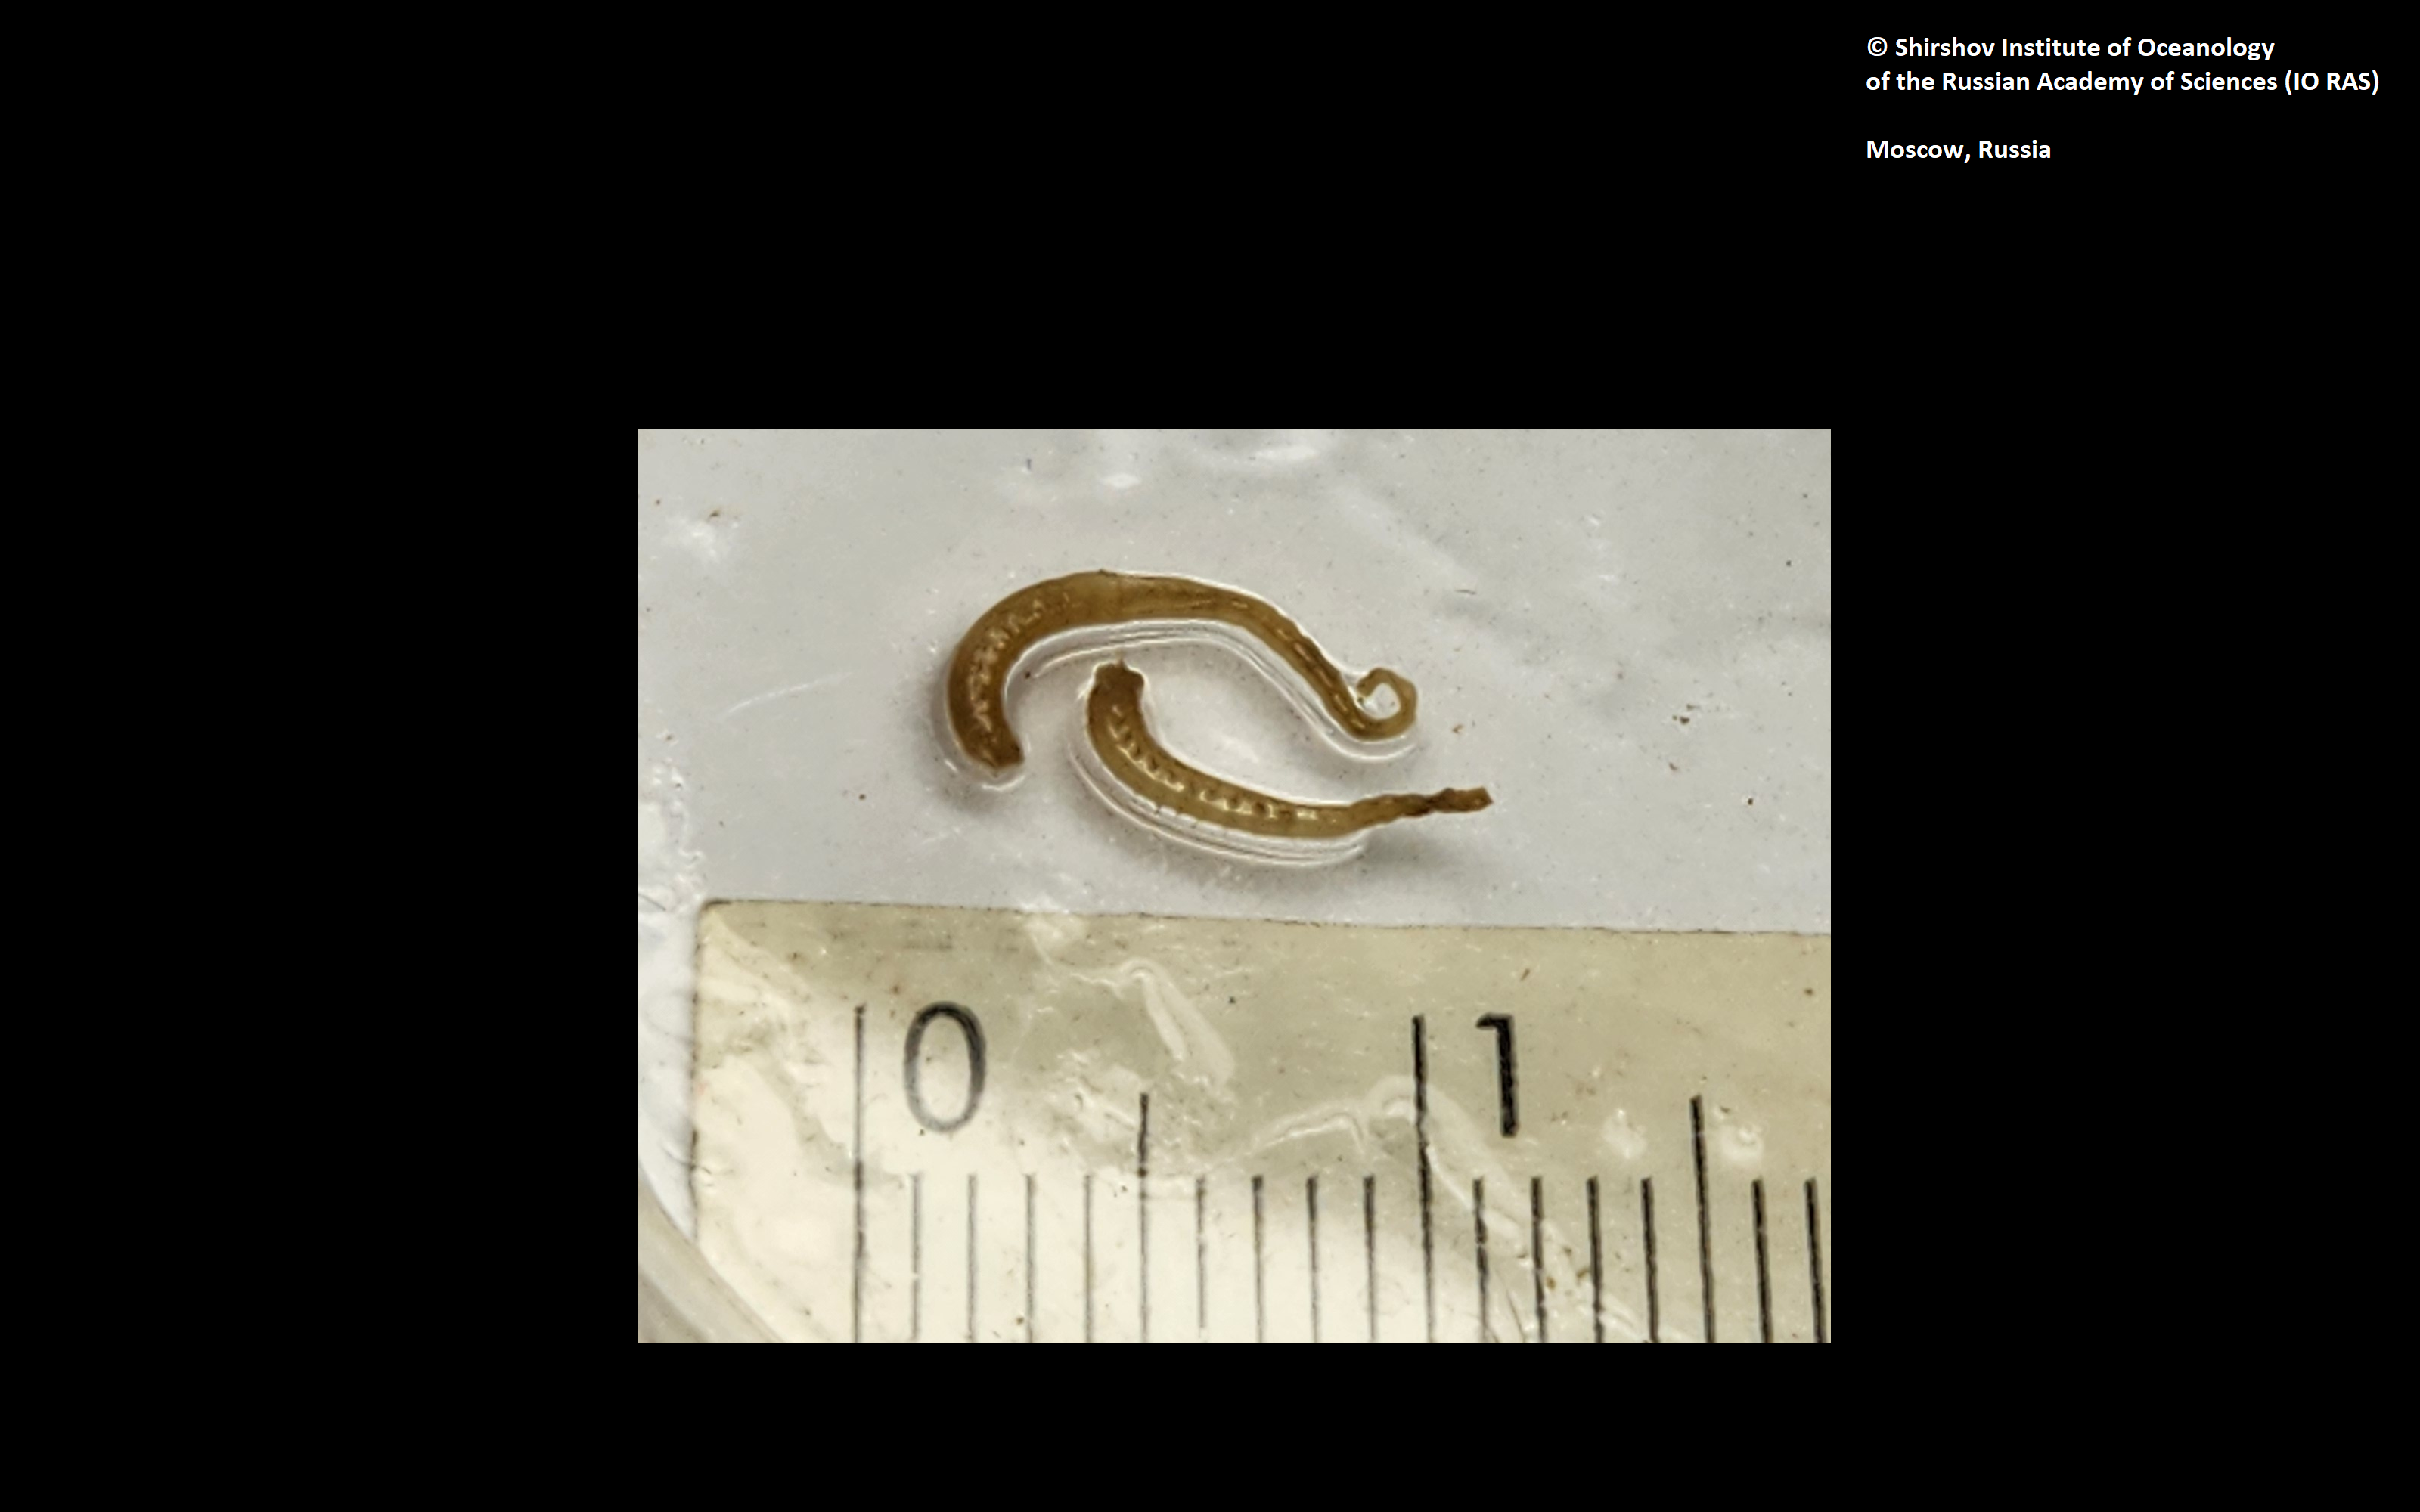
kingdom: Animalia
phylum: Annelida
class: Polychaeta
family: Ampharetidae
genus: Anobothrus
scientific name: Anobothrus mironovi
